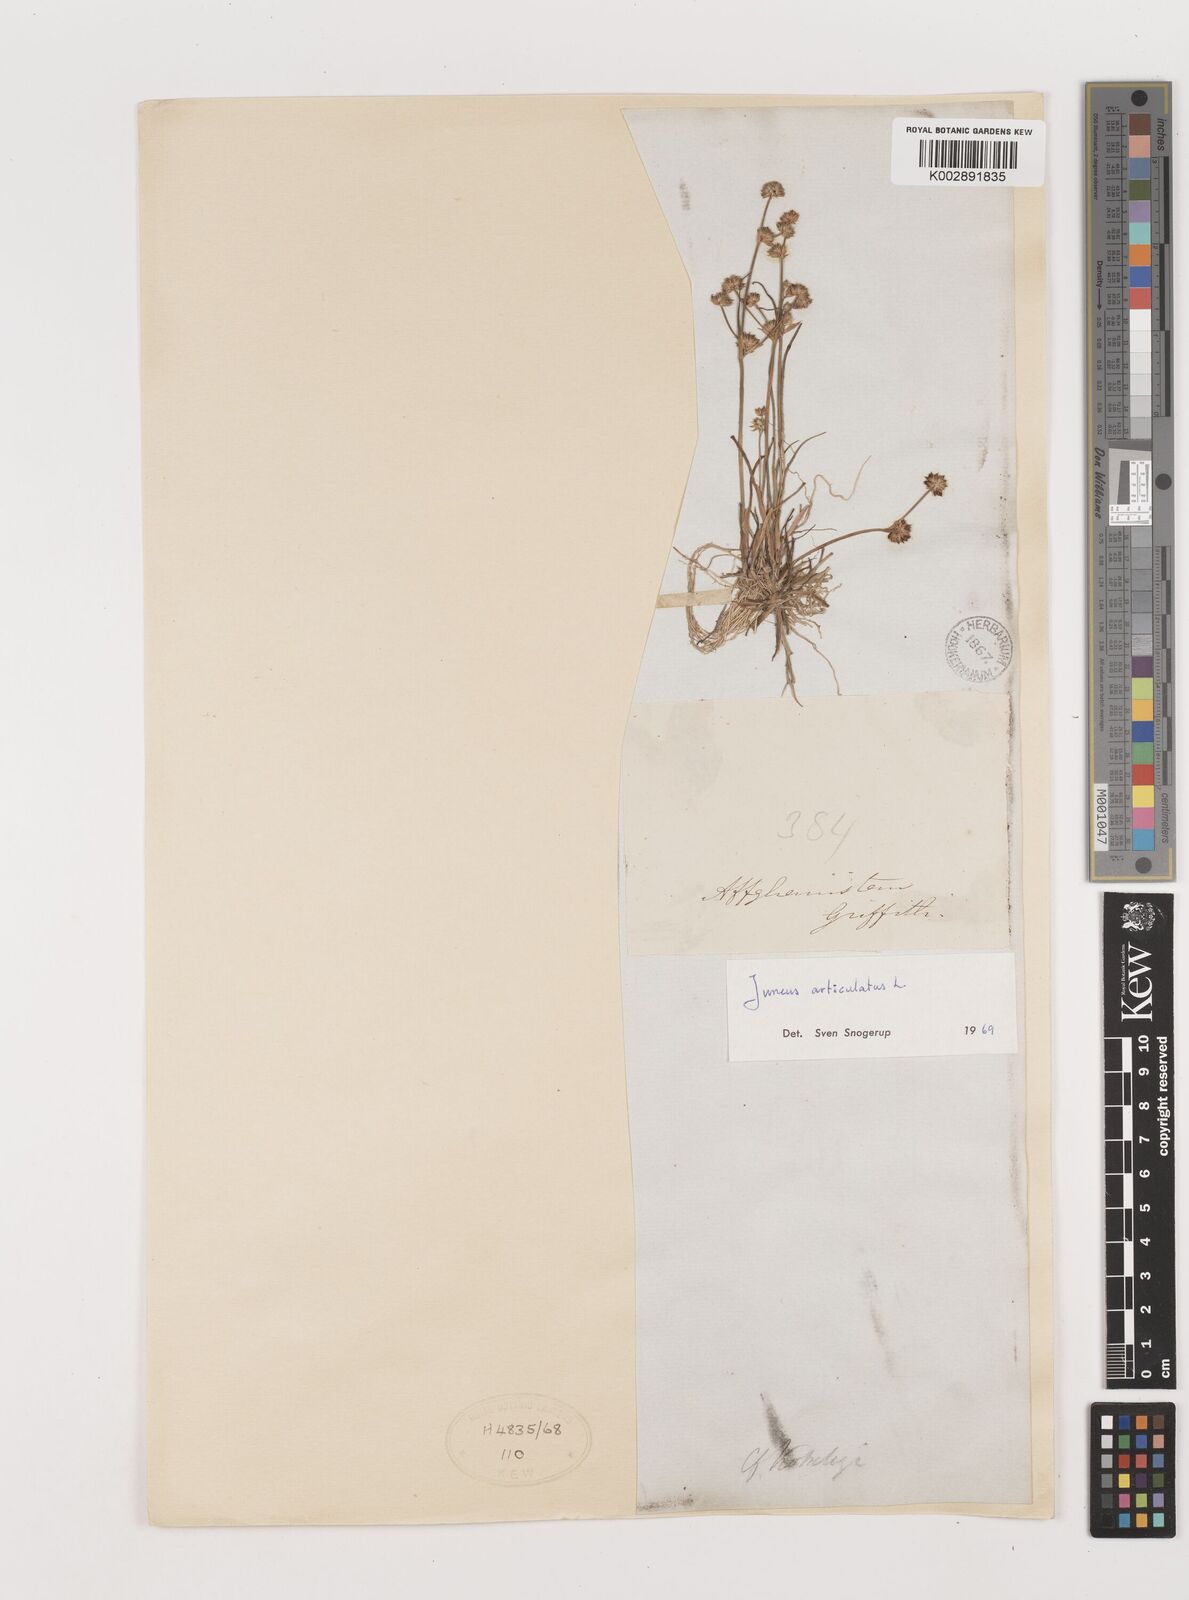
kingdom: Plantae
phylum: Tracheophyta
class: Liliopsida
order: Poales
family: Juncaceae
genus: Juncus
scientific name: Juncus articulatus
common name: Jointed rush
